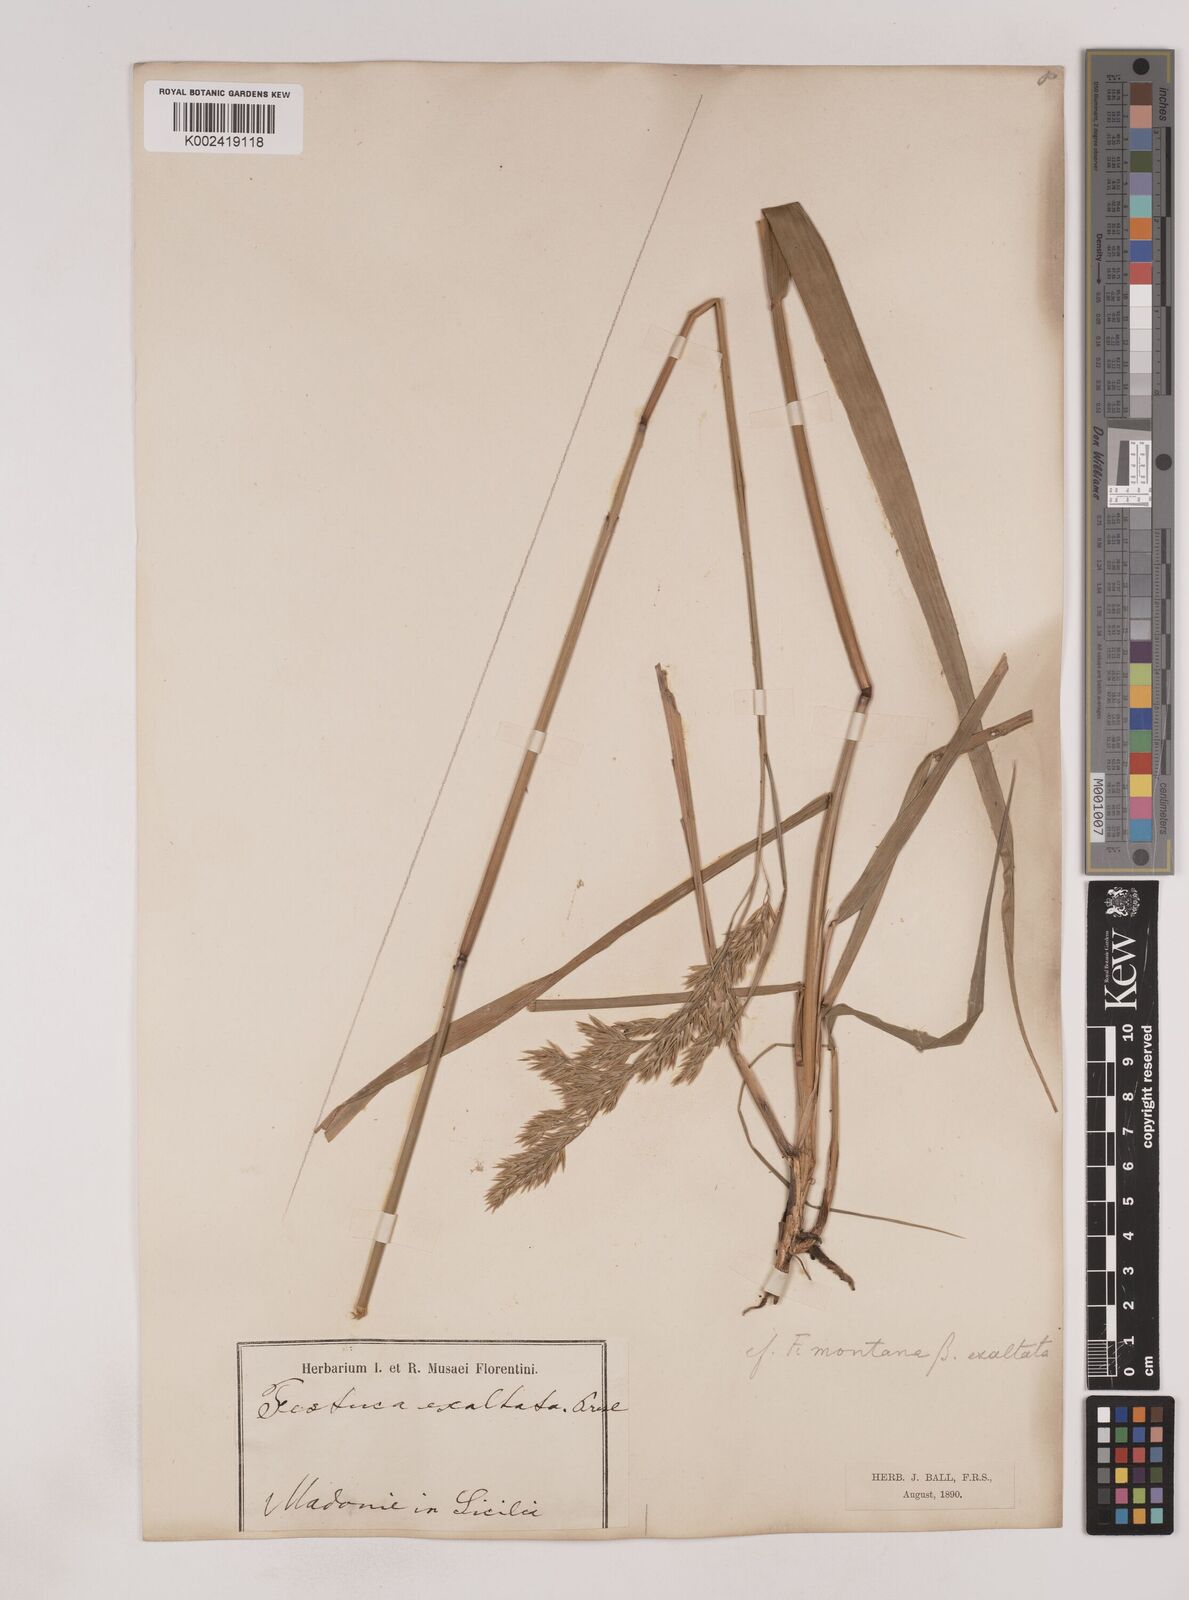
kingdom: Plantae
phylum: Tracheophyta
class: Liliopsida
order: Poales
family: Poaceae
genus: Festuca
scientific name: Festuca drymeja
